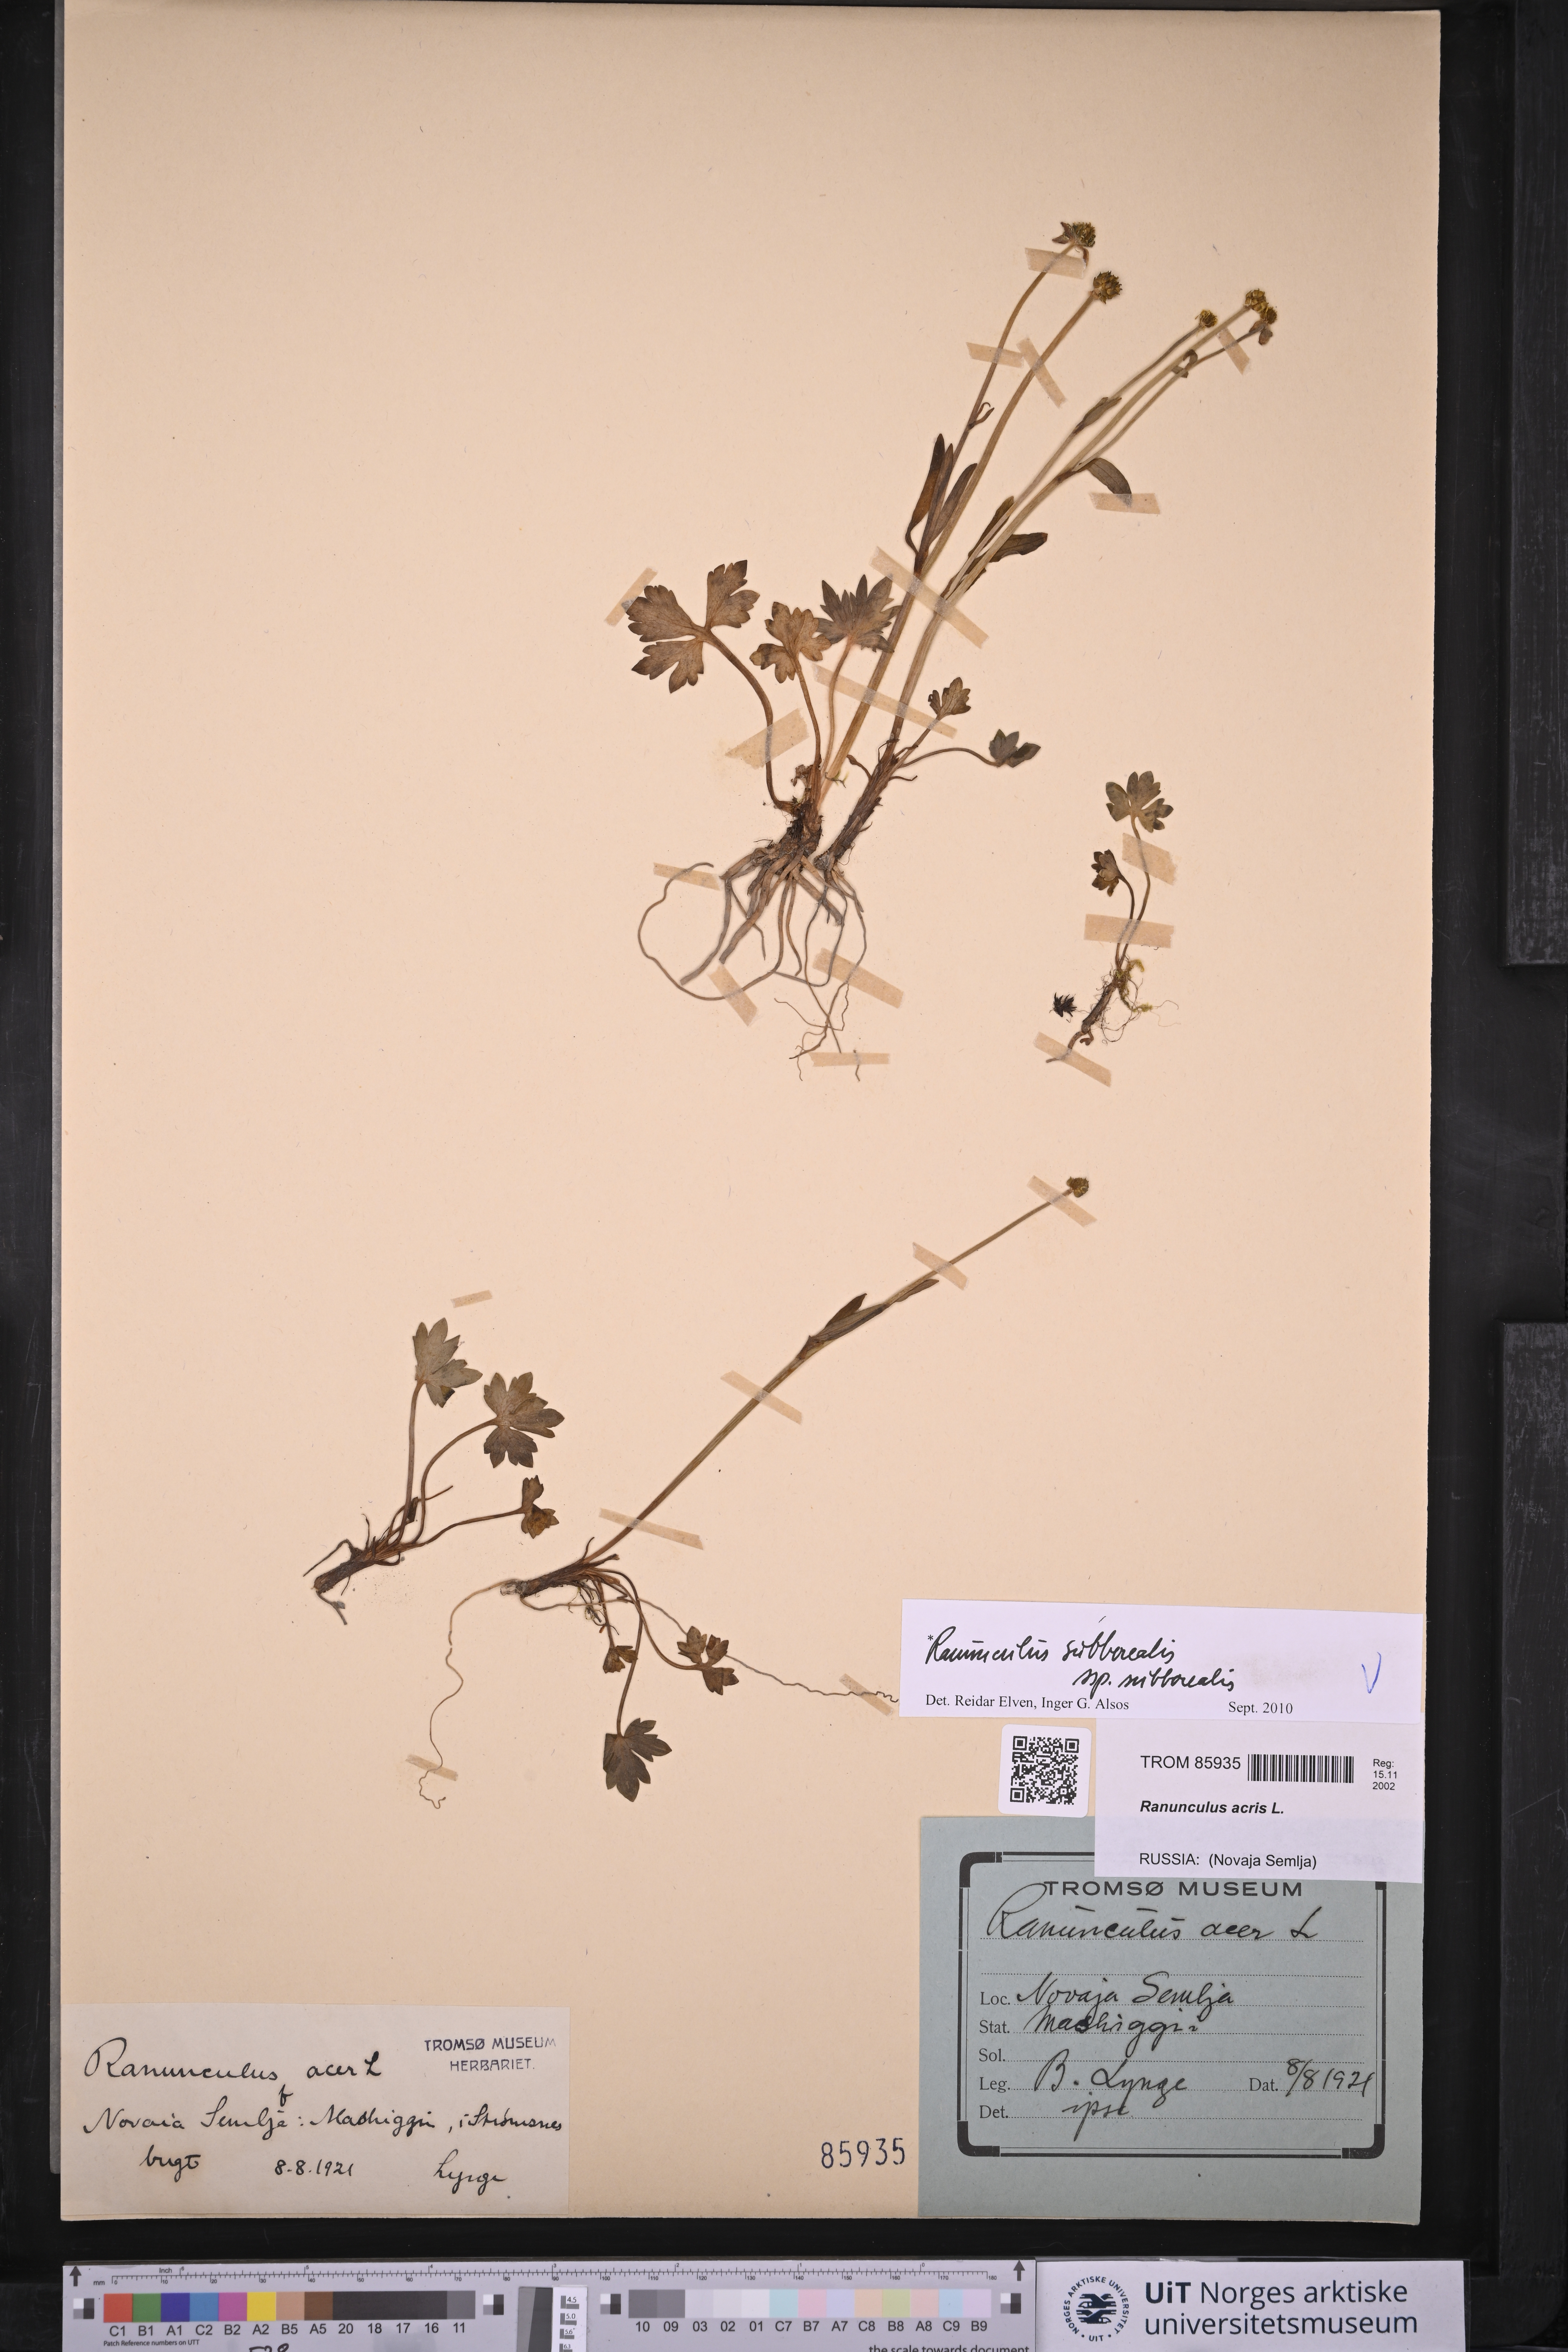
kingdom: Plantae
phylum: Tracheophyta
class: Magnoliopsida
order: Ranunculales
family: Ranunculaceae
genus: Ranunculus
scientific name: Ranunculus propinquus
